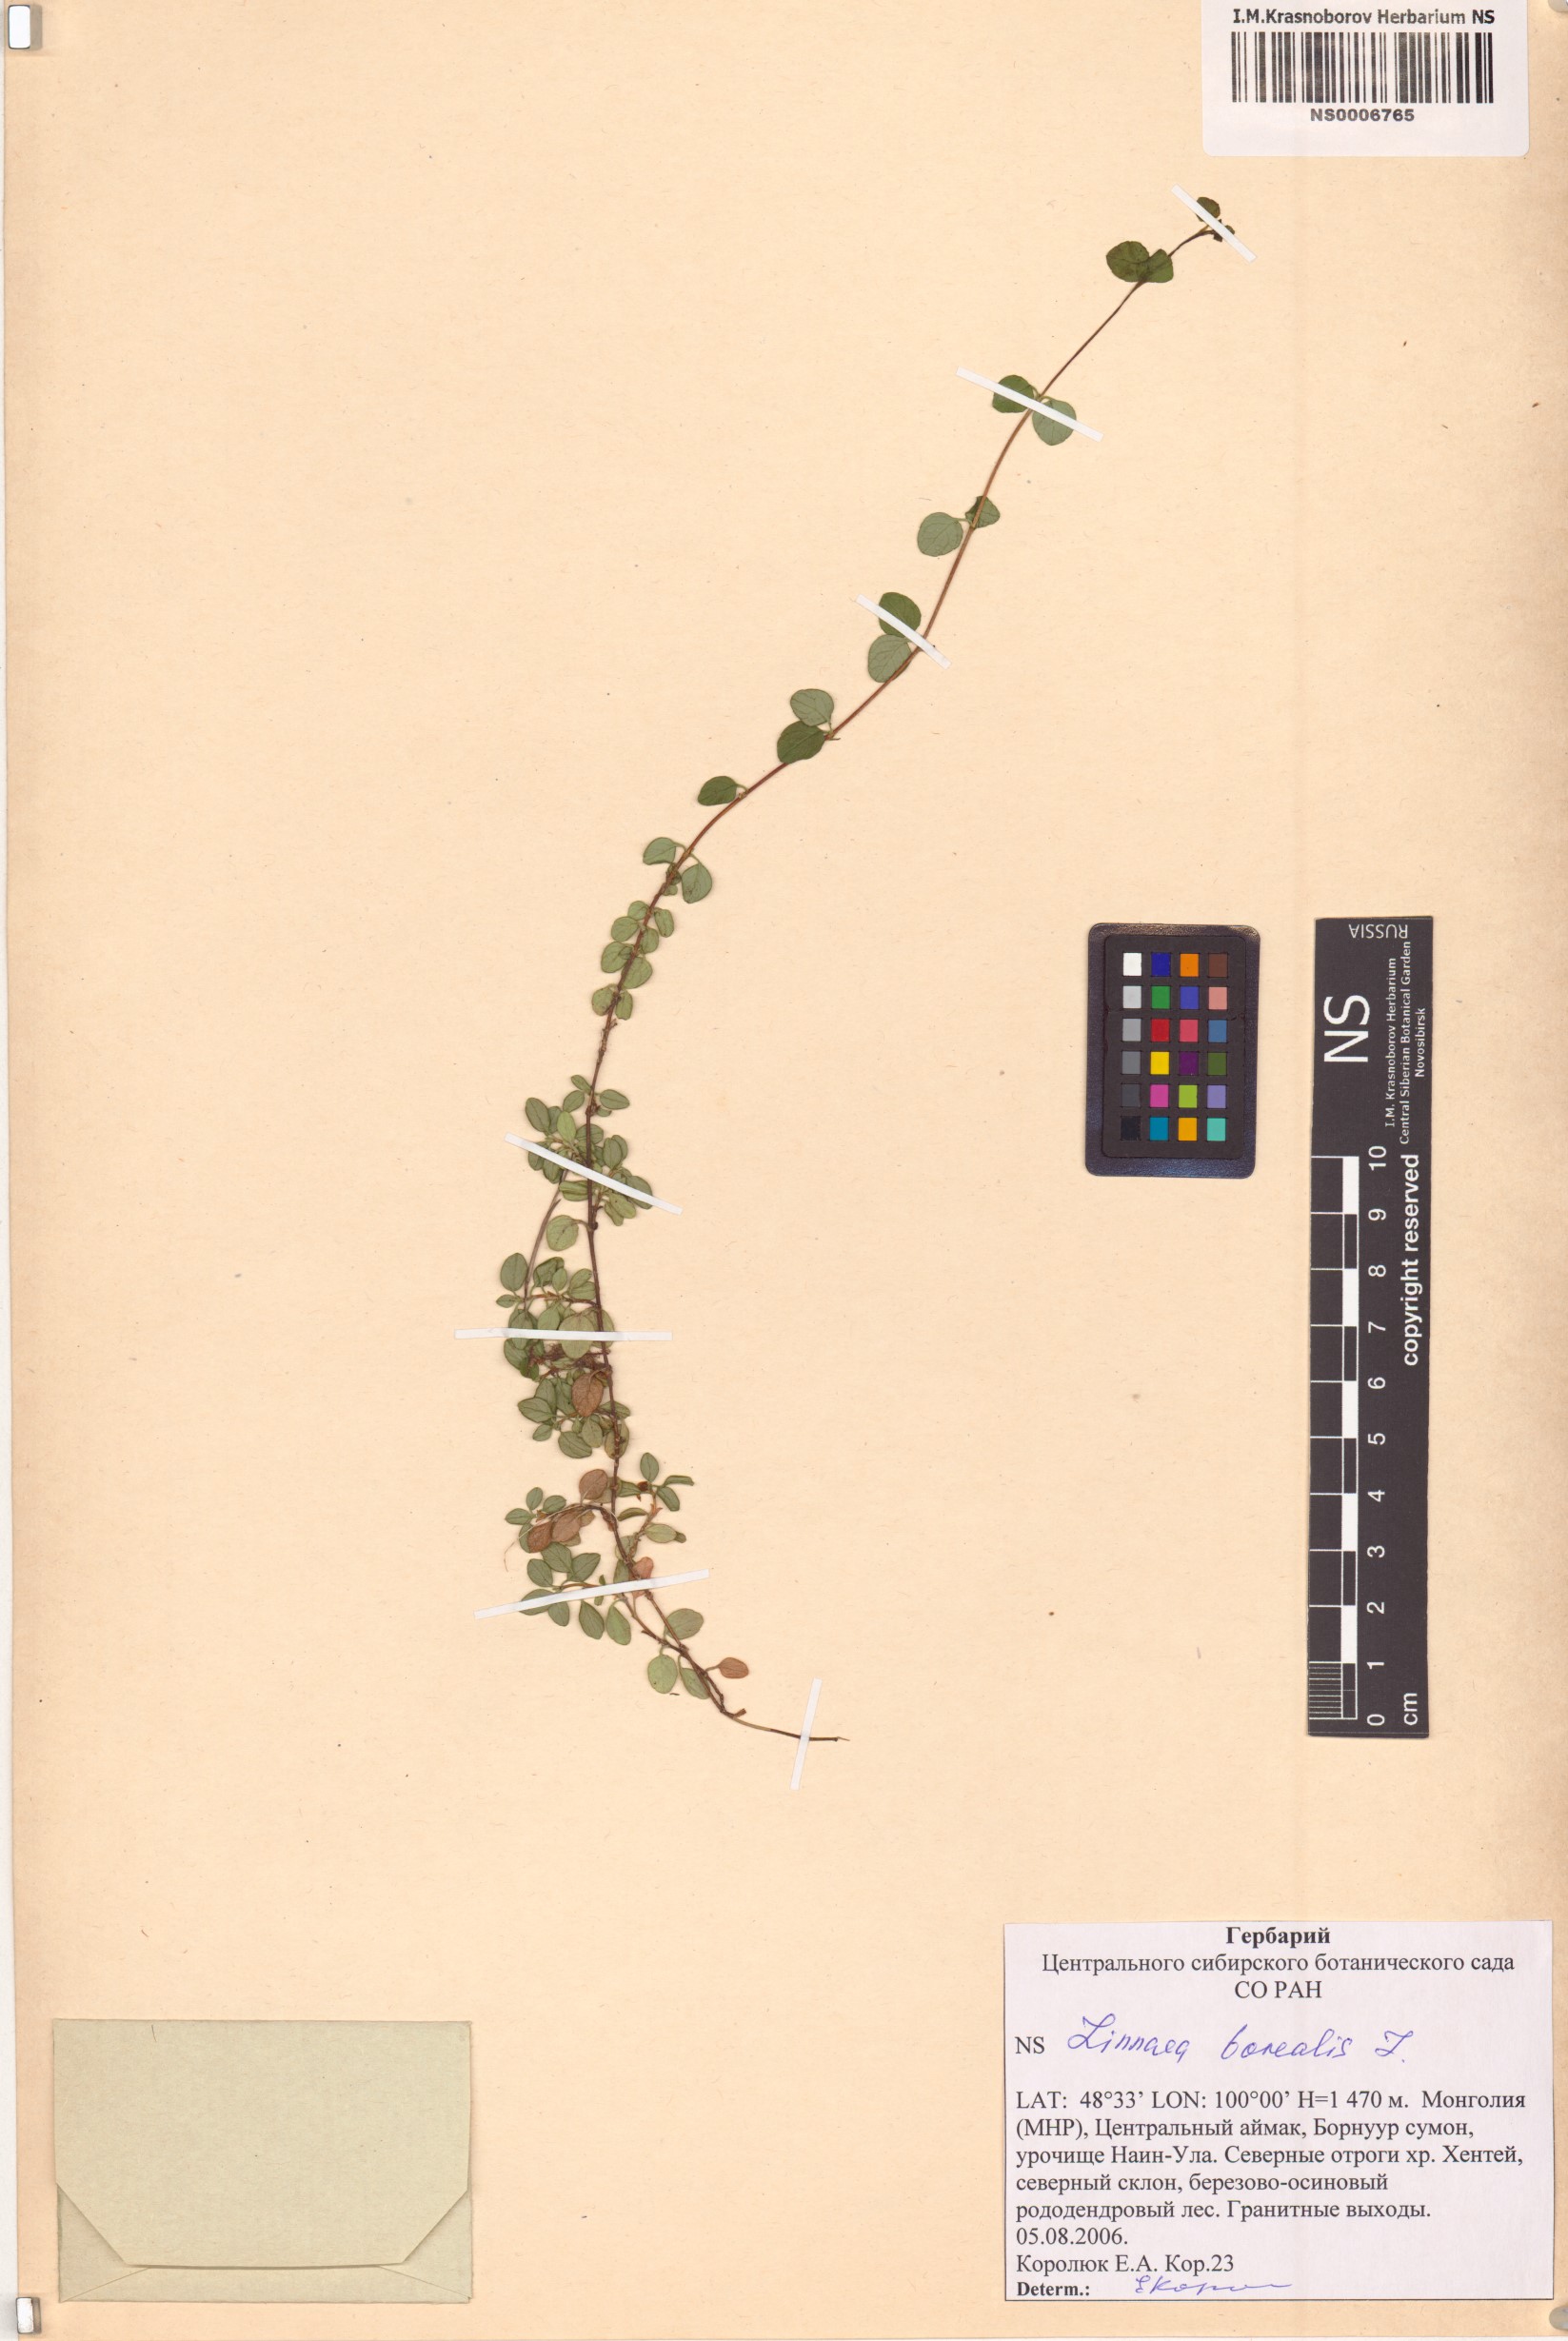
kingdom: Plantae
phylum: Tracheophyta
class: Magnoliopsida
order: Dipsacales
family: Caprifoliaceae
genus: Linnaea
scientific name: Linnaea borealis
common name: Twinflower
